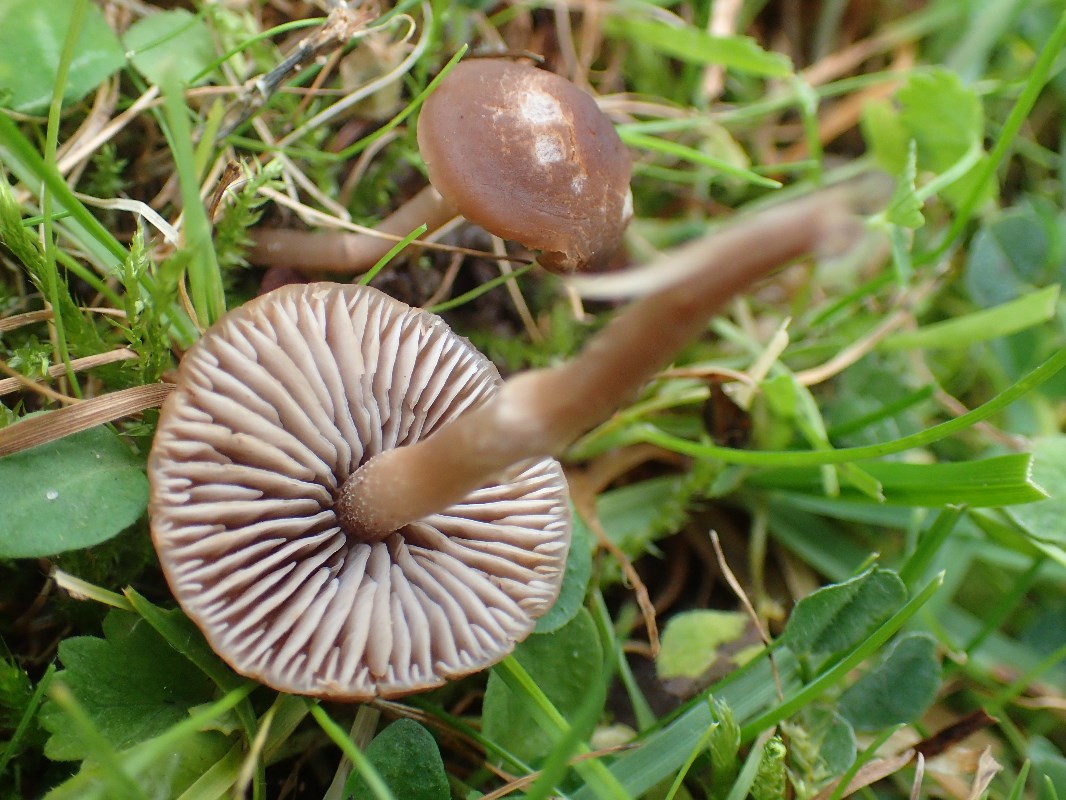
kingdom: Fungi
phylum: Basidiomycota
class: Agaricomycetes
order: Agaricales
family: Tricholomataceae
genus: Dermoloma
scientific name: Dermoloma pseudocuneifolium
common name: mark-nonnehat
